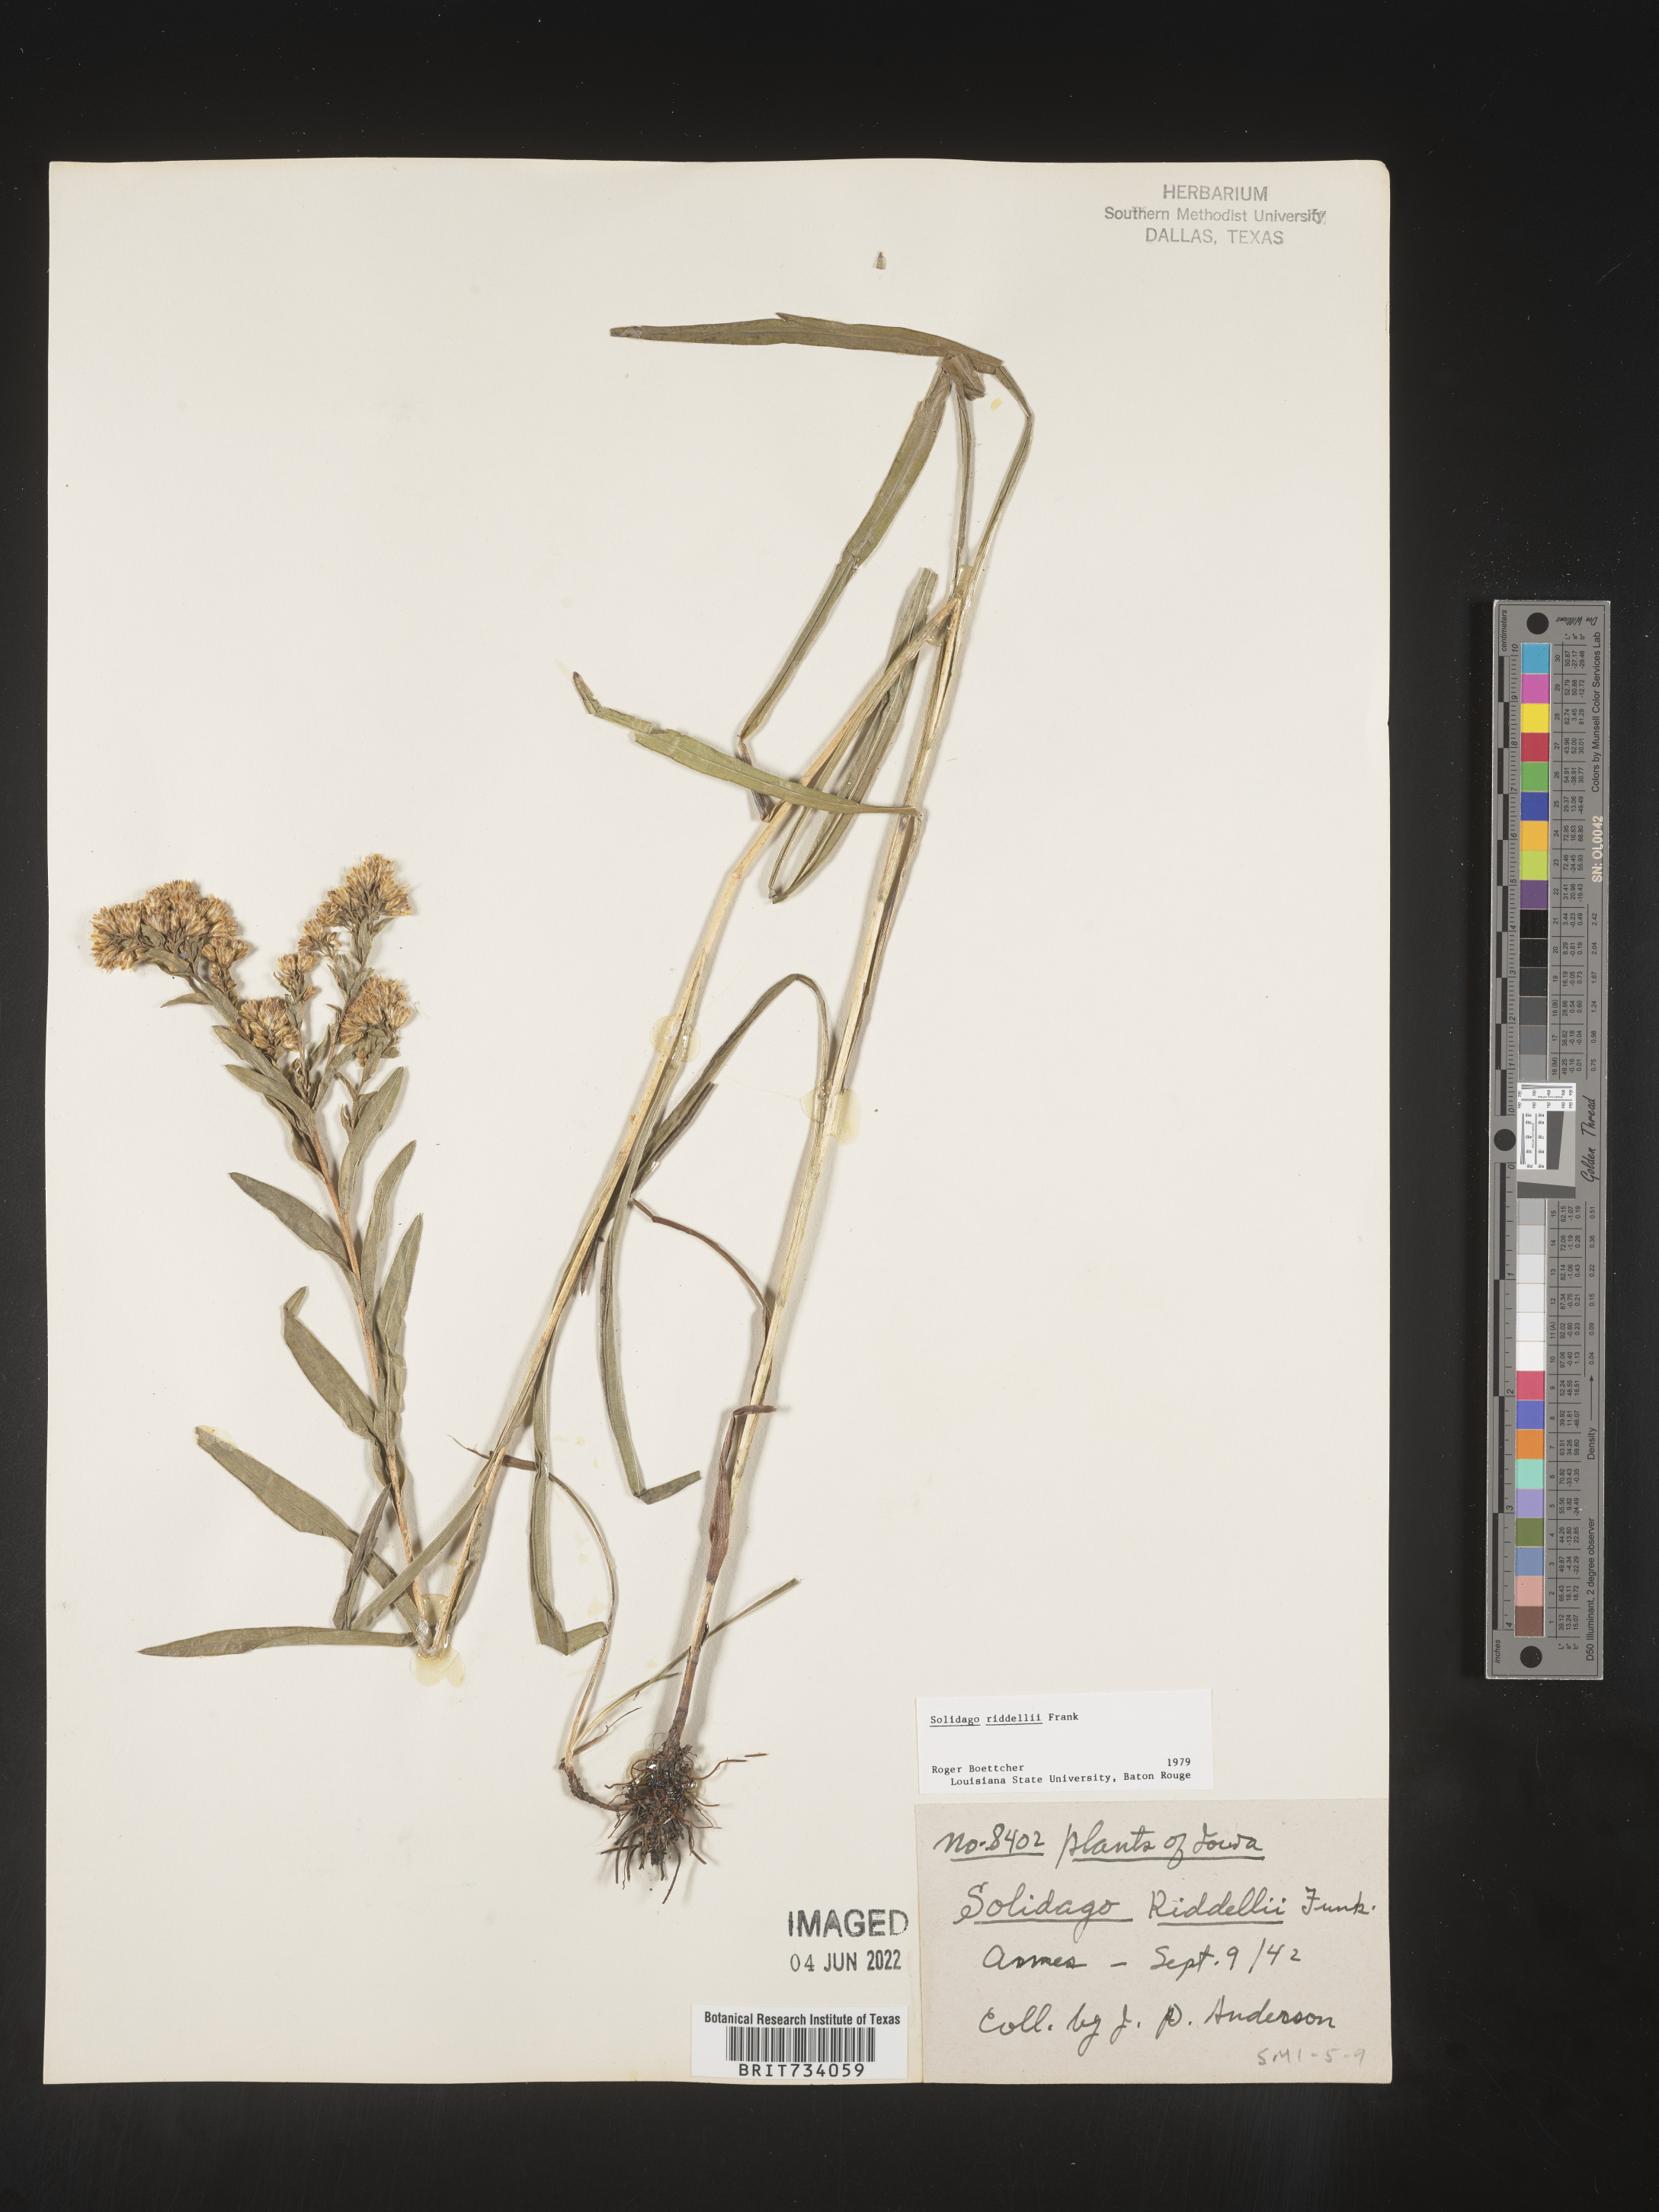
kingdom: Plantae
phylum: Tracheophyta
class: Magnoliopsida
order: Asterales
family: Asteraceae
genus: Solidago
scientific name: Solidago riddellii
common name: Riddell's goldenrod
